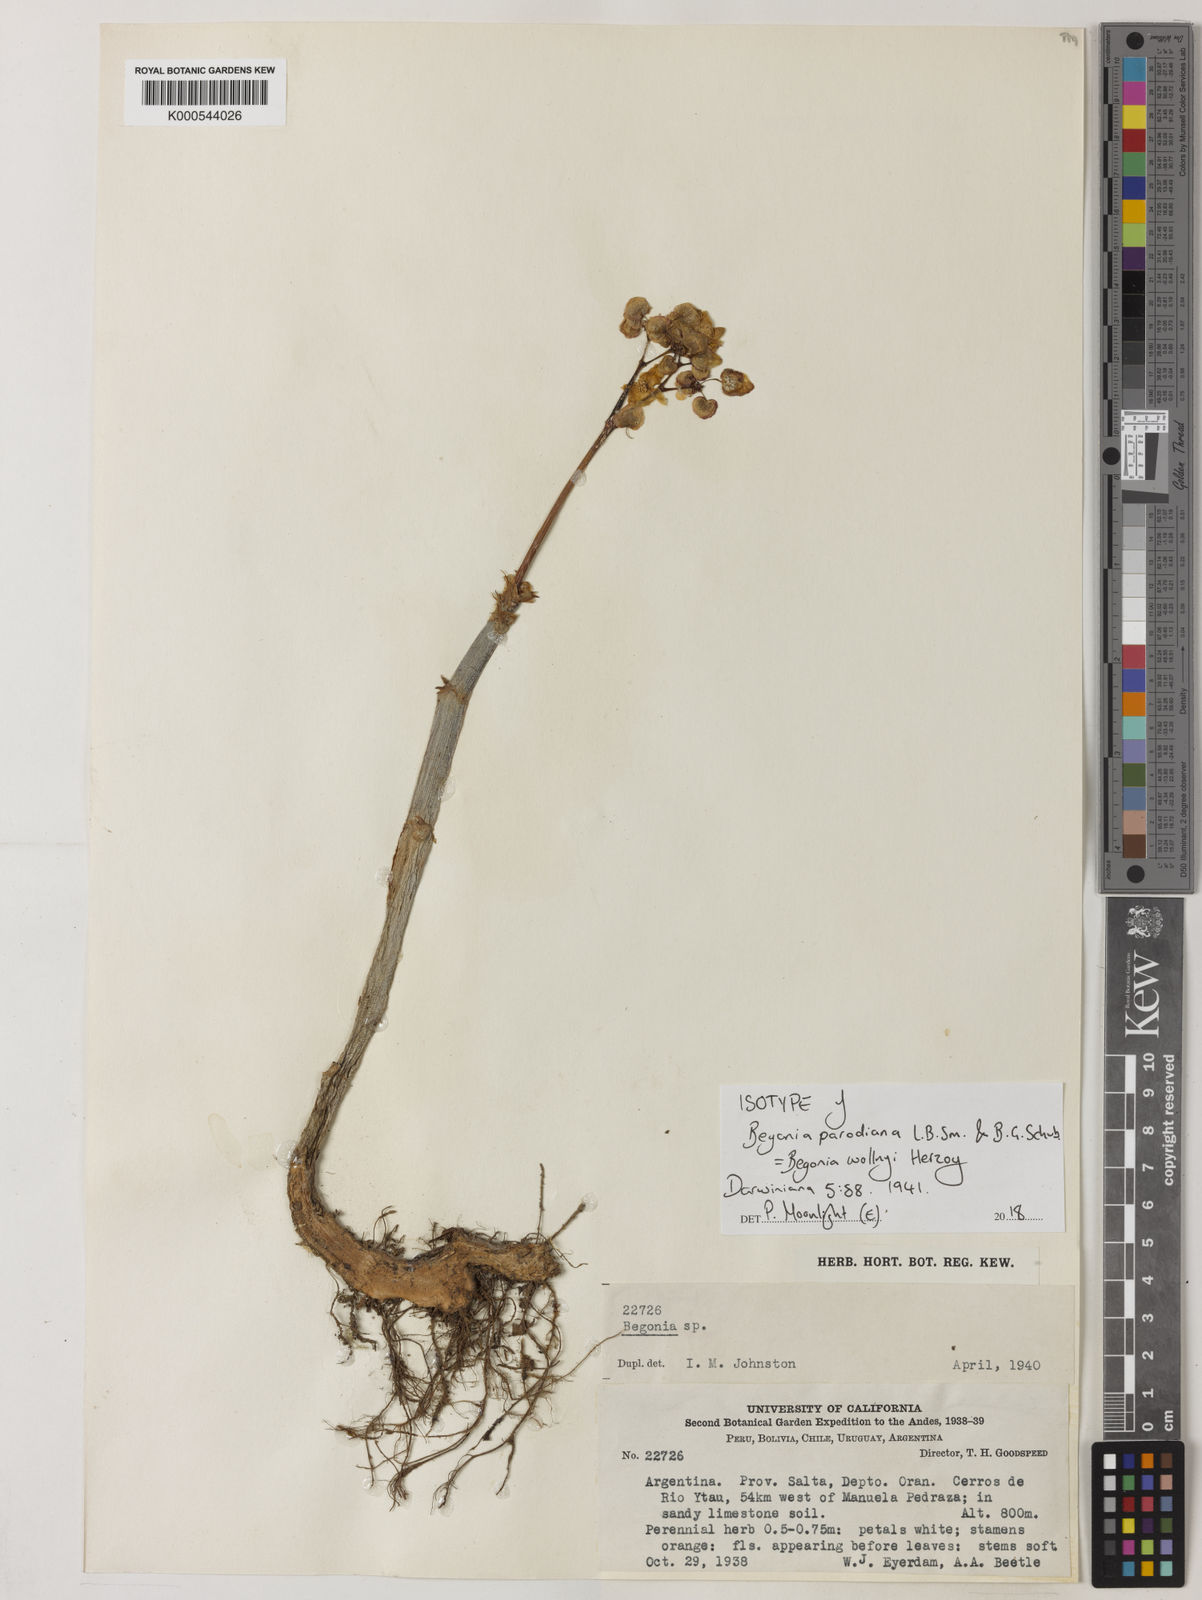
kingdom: Plantae
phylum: Tracheophyta
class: Magnoliopsida
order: Cucurbitales
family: Begoniaceae
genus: Begonia
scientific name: Begonia wollnyi
